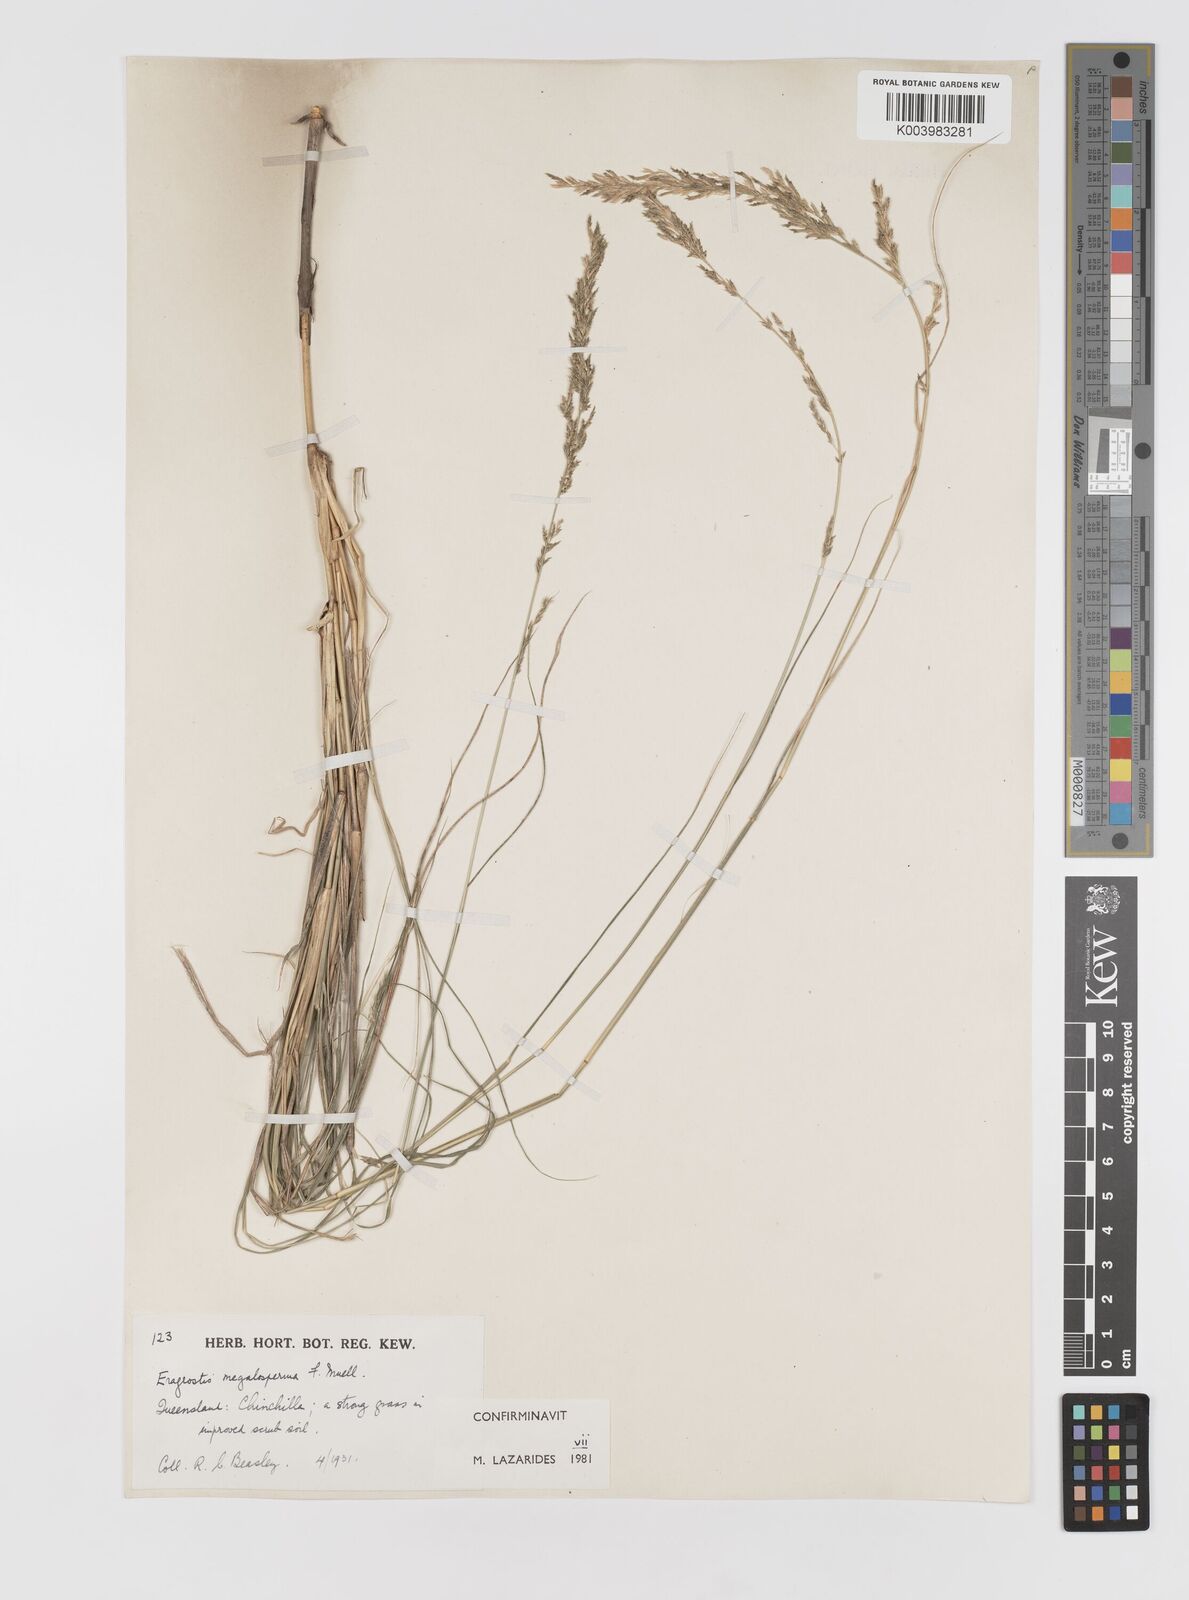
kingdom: Plantae
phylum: Tracheophyta
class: Liliopsida
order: Poales
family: Poaceae
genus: Sporobolus
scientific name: Sporobolus megalospermus
